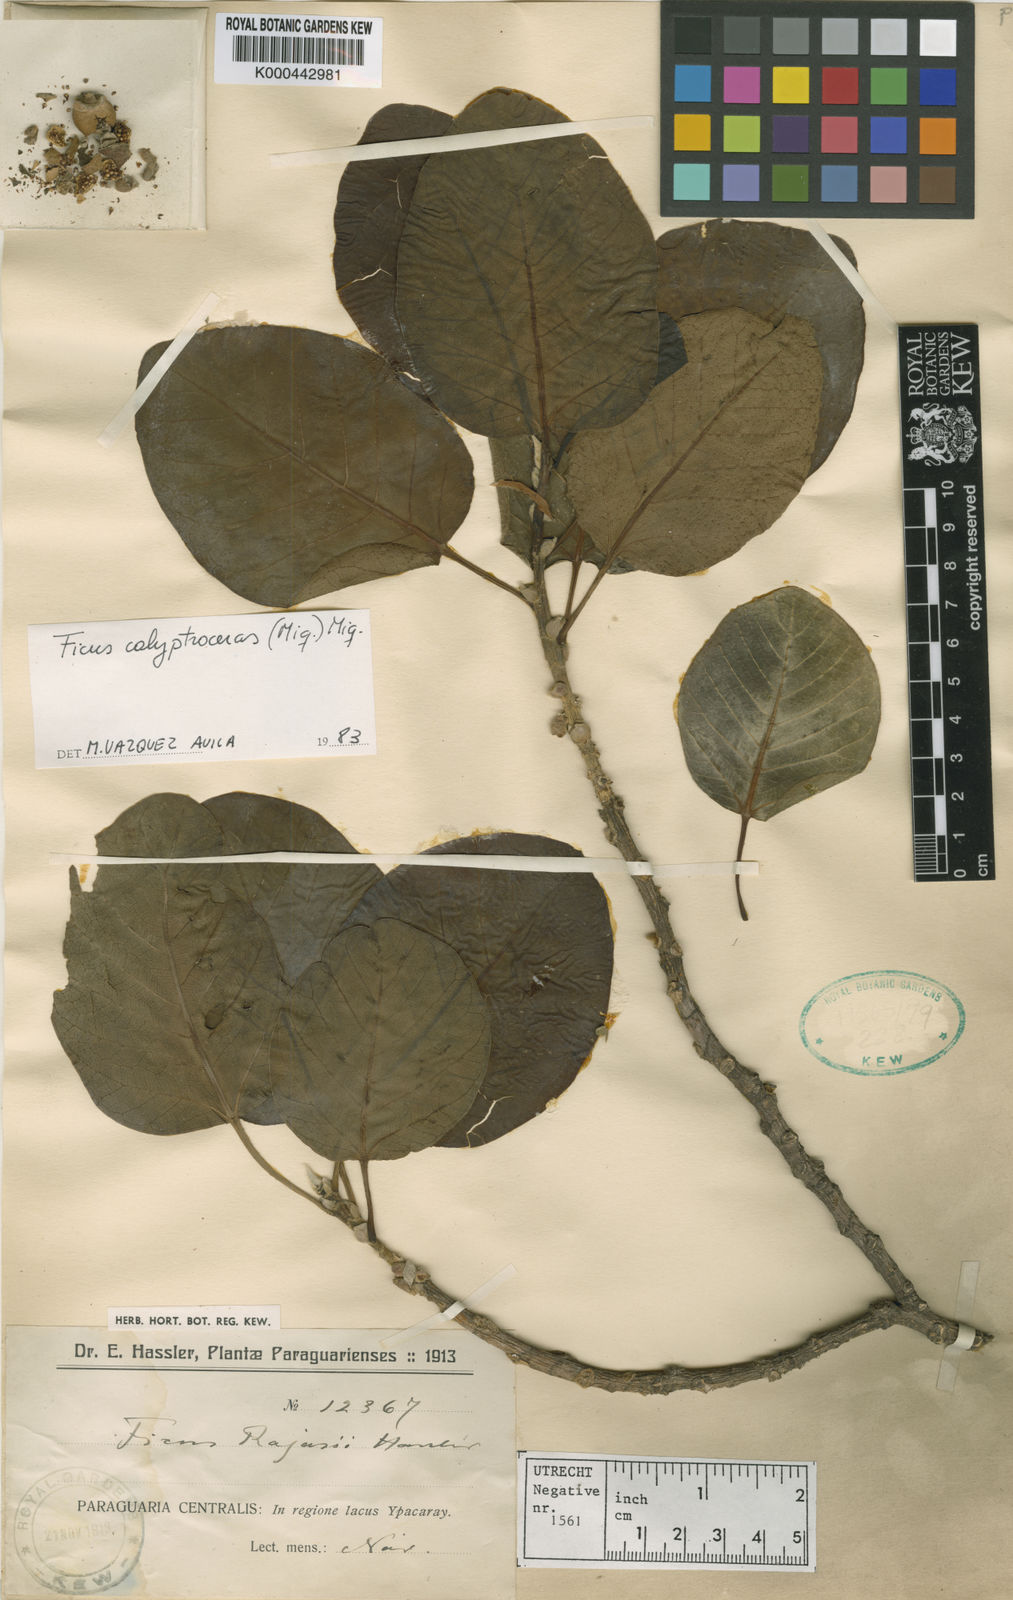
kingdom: Plantae
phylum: Tracheophyta
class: Magnoliopsida
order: Rosales
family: Moraceae
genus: Ficus
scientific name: Ficus calyptroceras
